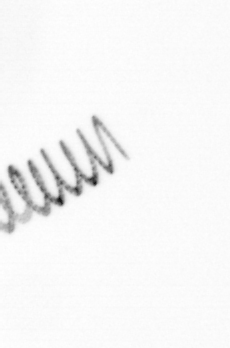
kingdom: Chromista
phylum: Ochrophyta
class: Bacillariophyceae
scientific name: Bacillariophyceae
